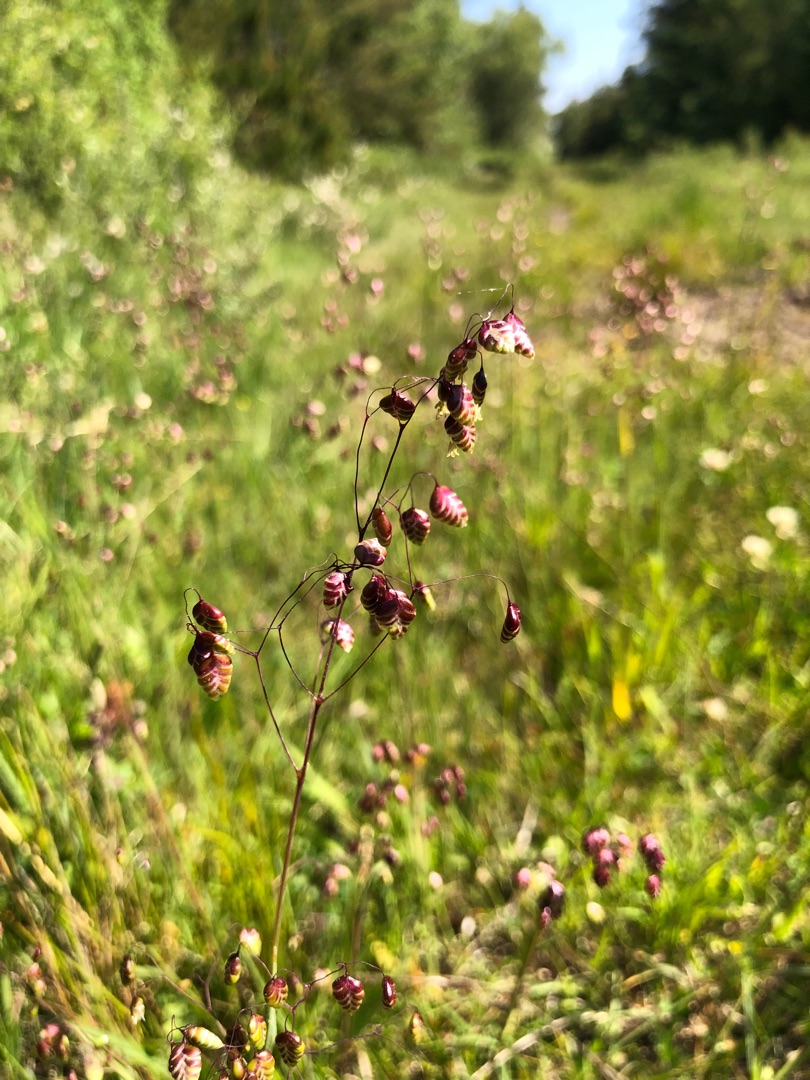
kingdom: Plantae
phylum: Tracheophyta
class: Liliopsida
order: Poales
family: Poaceae
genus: Briza
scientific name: Briza media
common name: Hjertegræs
